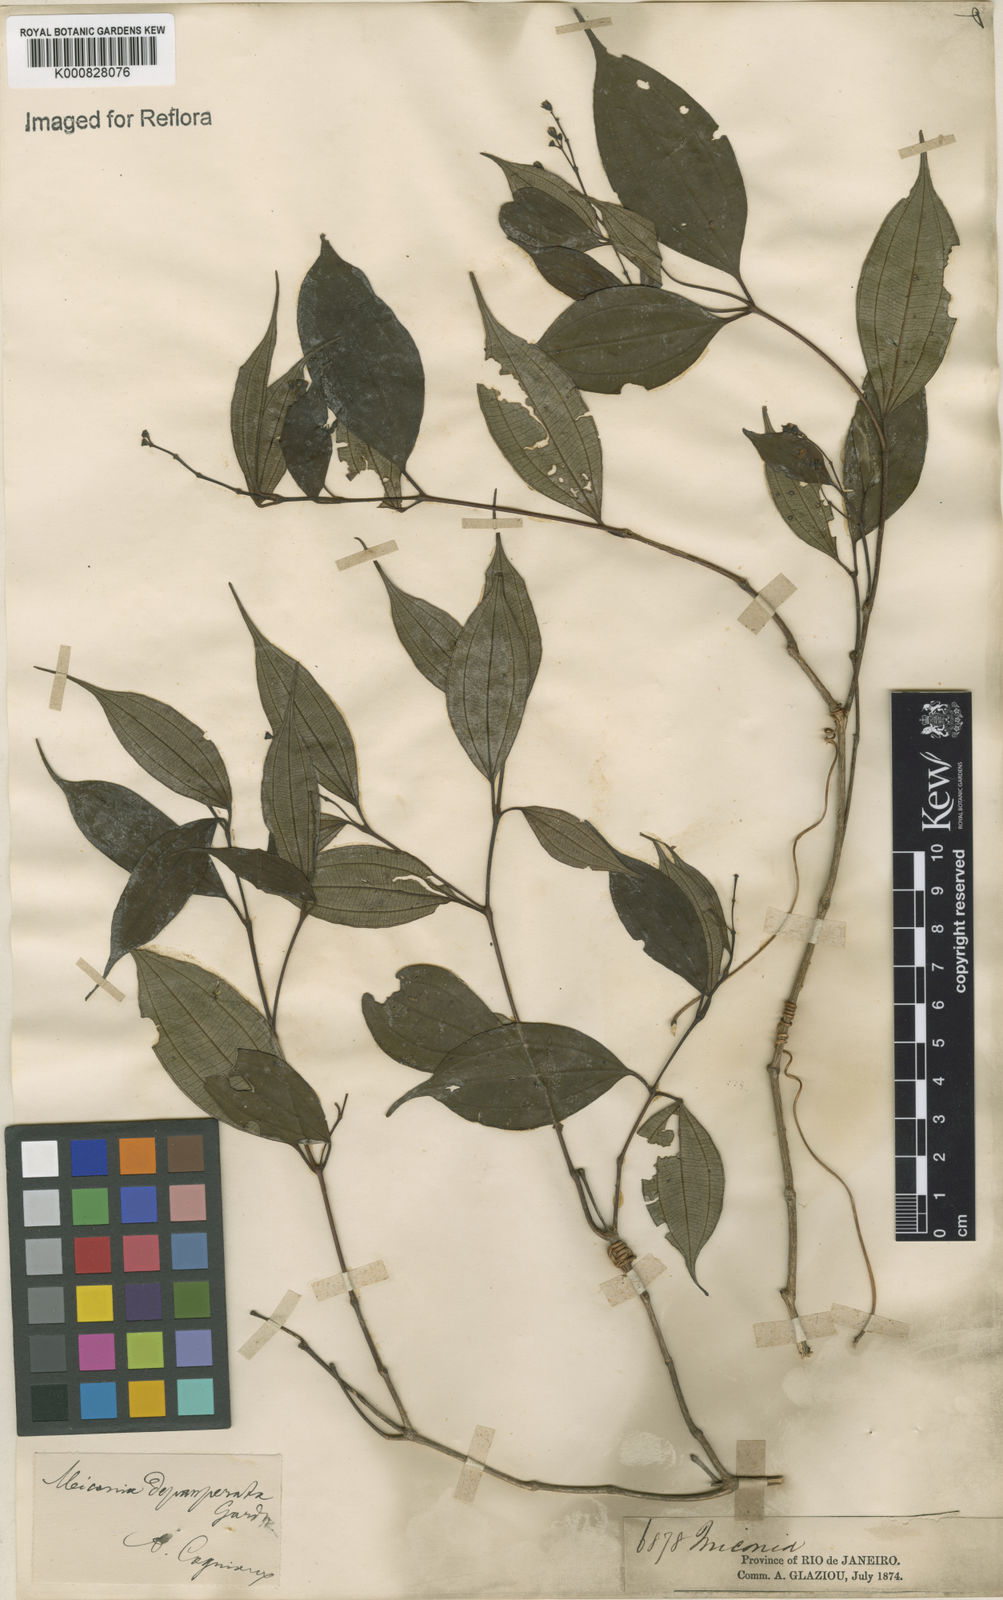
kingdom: Plantae
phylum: Tracheophyta
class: Magnoliopsida
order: Myrtales
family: Melastomataceae
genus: Miconia
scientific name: Miconia depauperata
